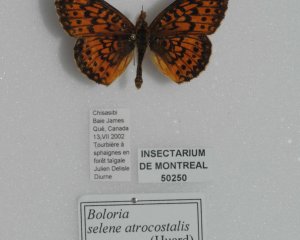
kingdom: Animalia
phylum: Arthropoda
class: Insecta
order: Lepidoptera
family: Nymphalidae
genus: Boloria
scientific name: Boloria selene
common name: Silver-bordered Fritillary
